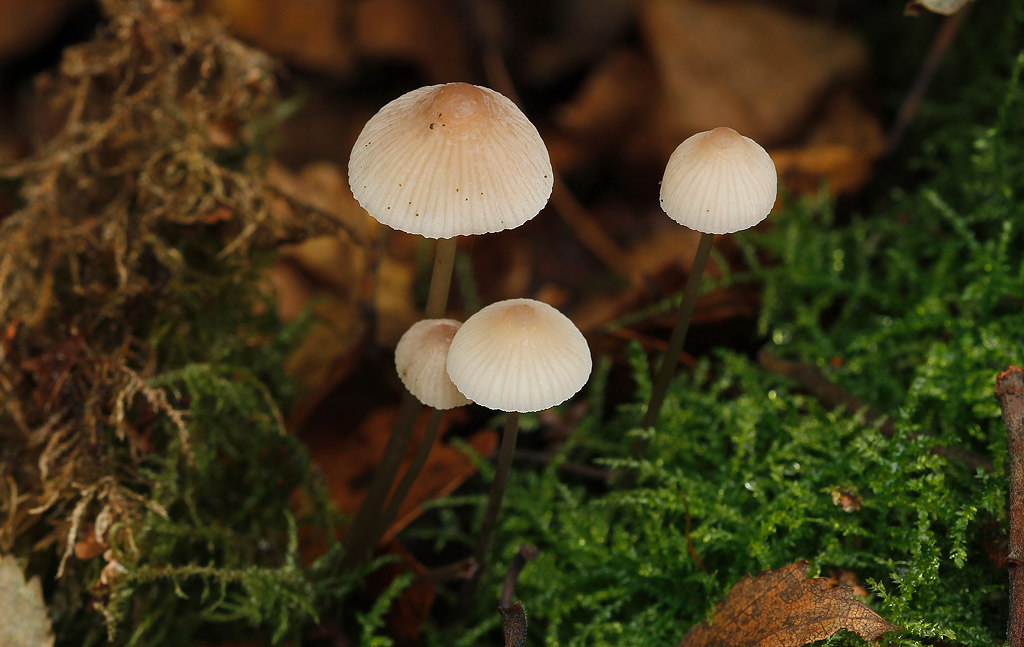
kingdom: Fungi
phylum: Basidiomycota
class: Agaricomycetes
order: Agaricales
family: Mycenaceae
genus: Mycena
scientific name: Mycena metata
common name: rødlig huesvamp
